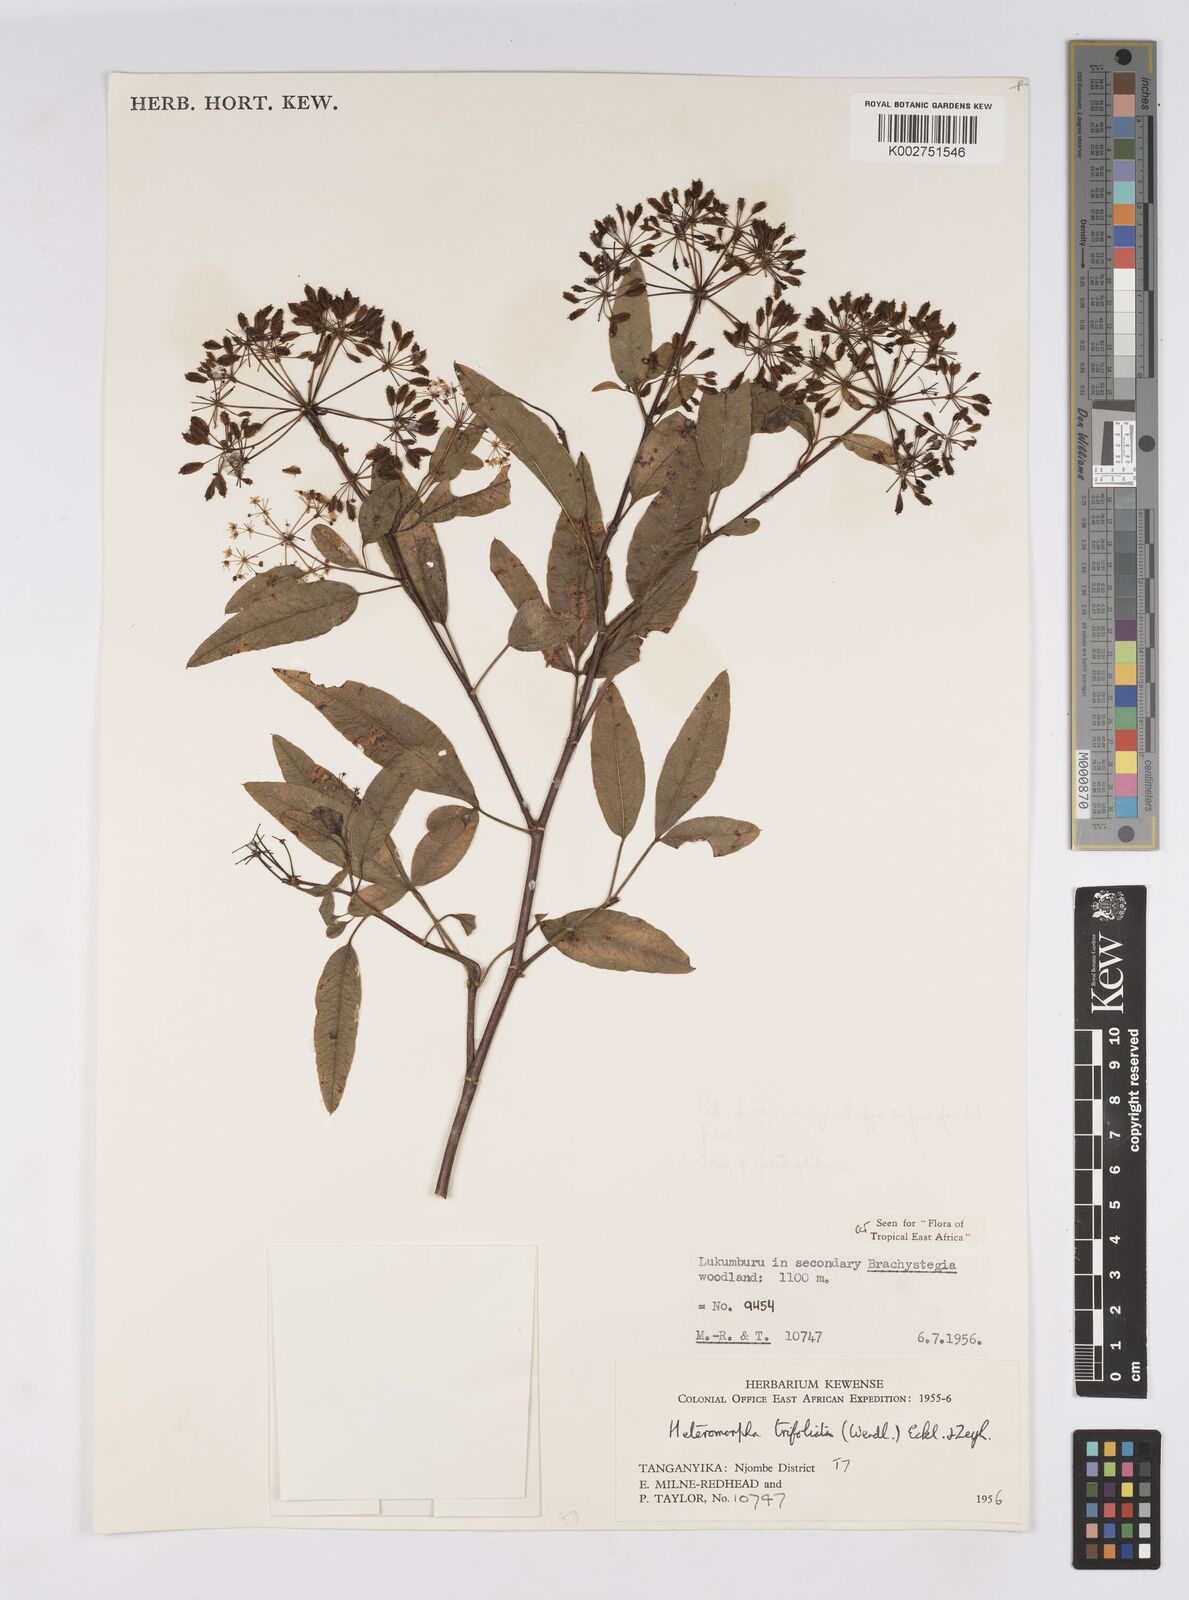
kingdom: Plantae
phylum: Tracheophyta
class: Magnoliopsida
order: Apiales
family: Apiaceae
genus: Heteromorpha
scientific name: Heteromorpha arborescens
